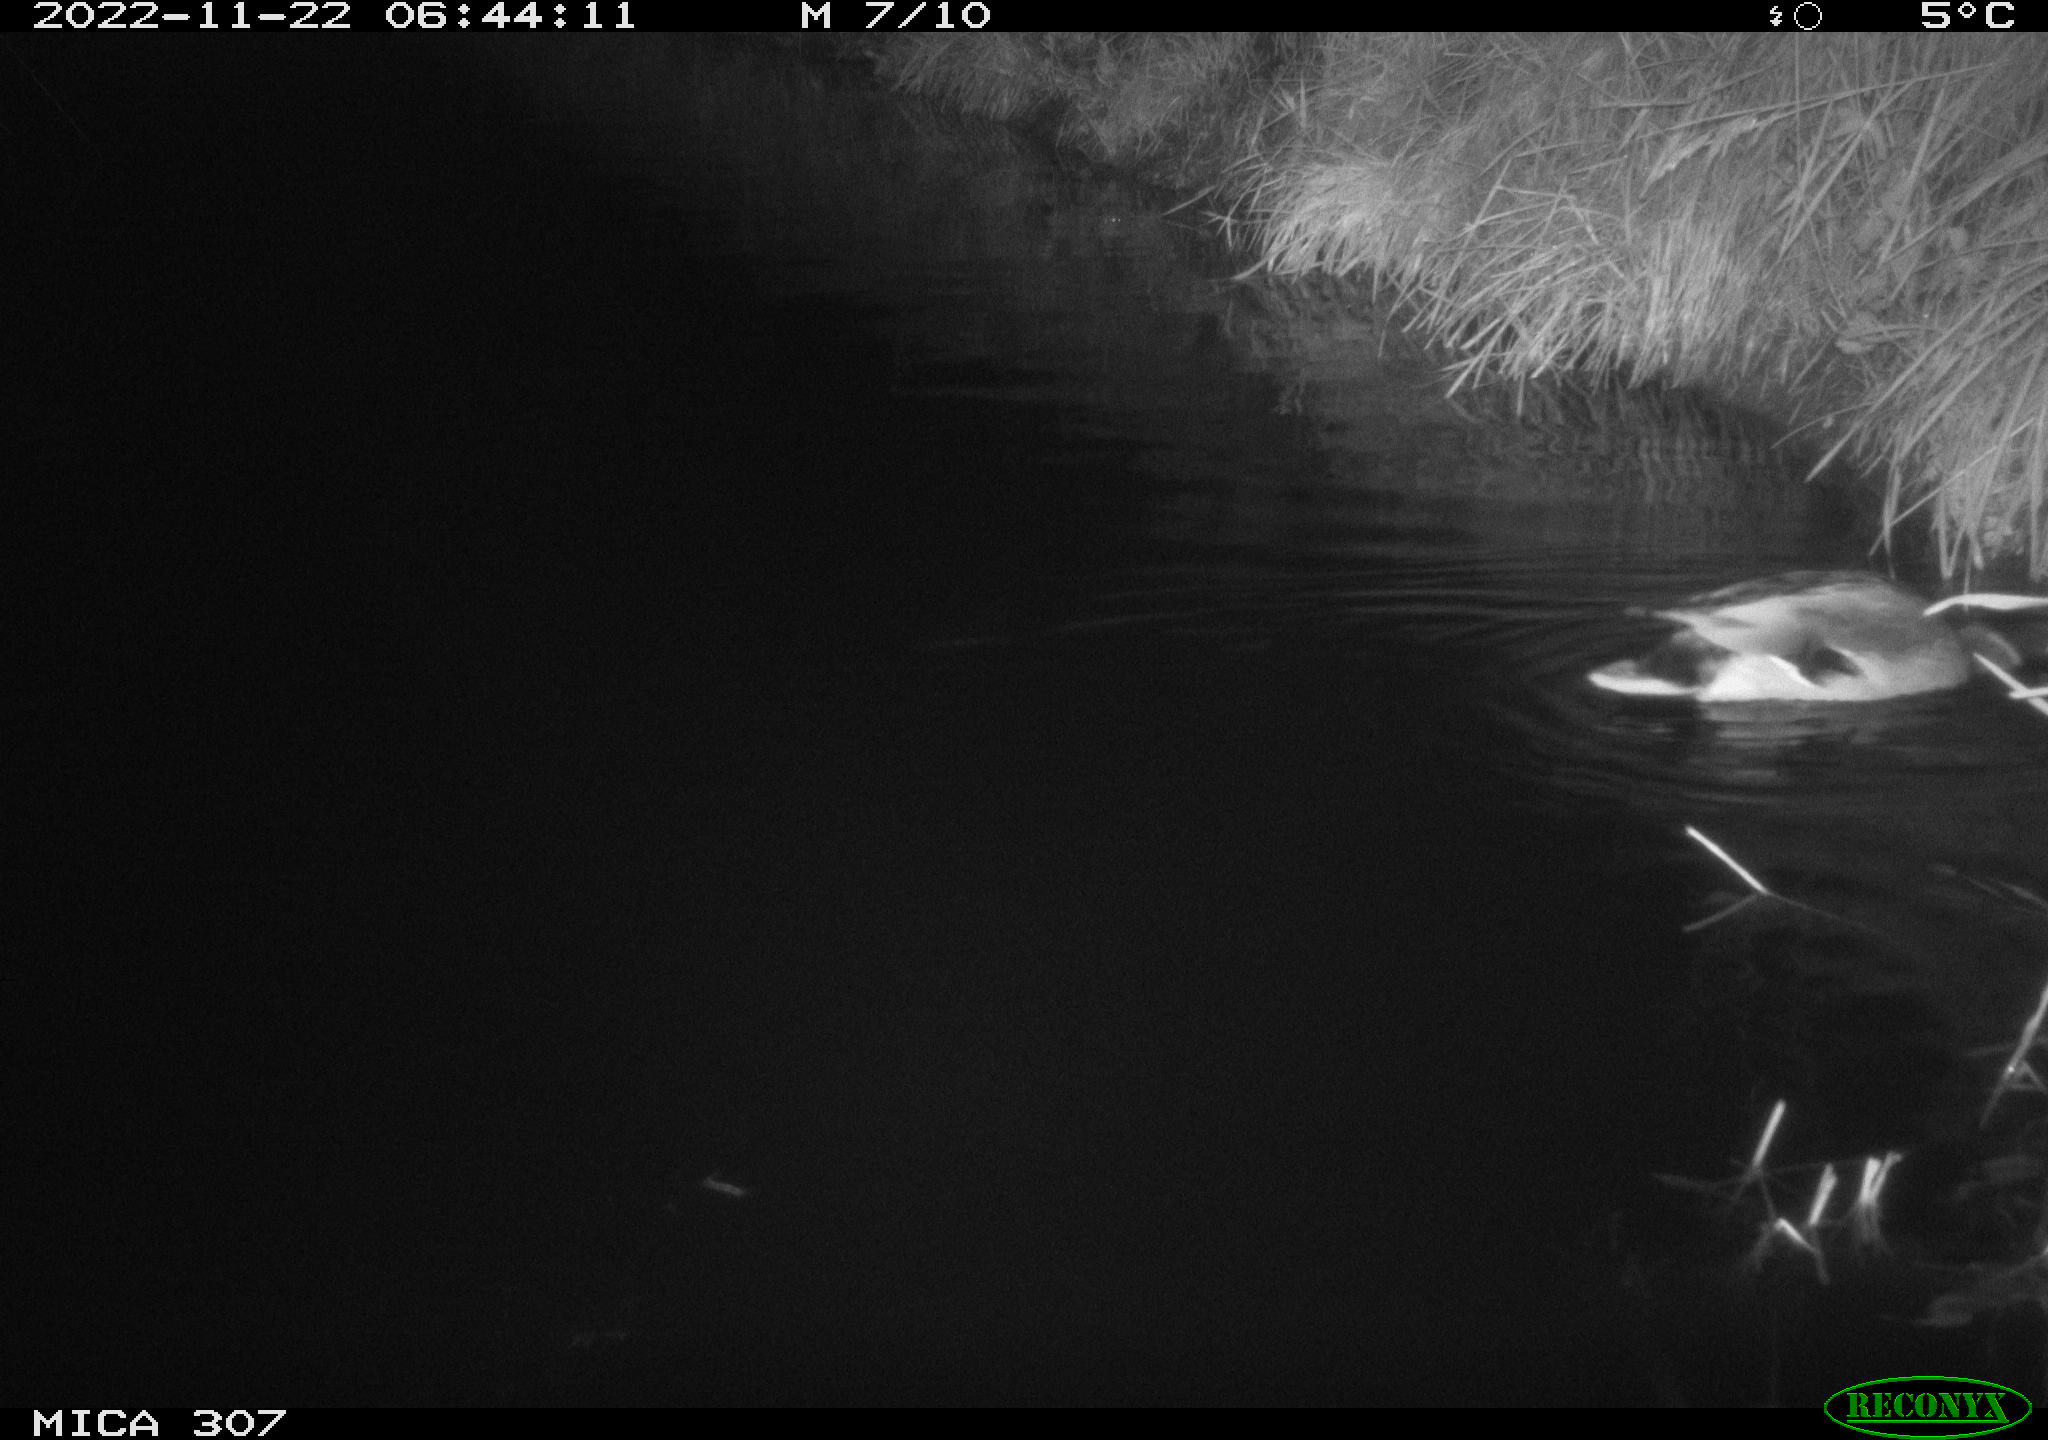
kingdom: Animalia
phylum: Chordata
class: Aves
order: Anseriformes
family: Anatidae
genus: Anas
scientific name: Anas
